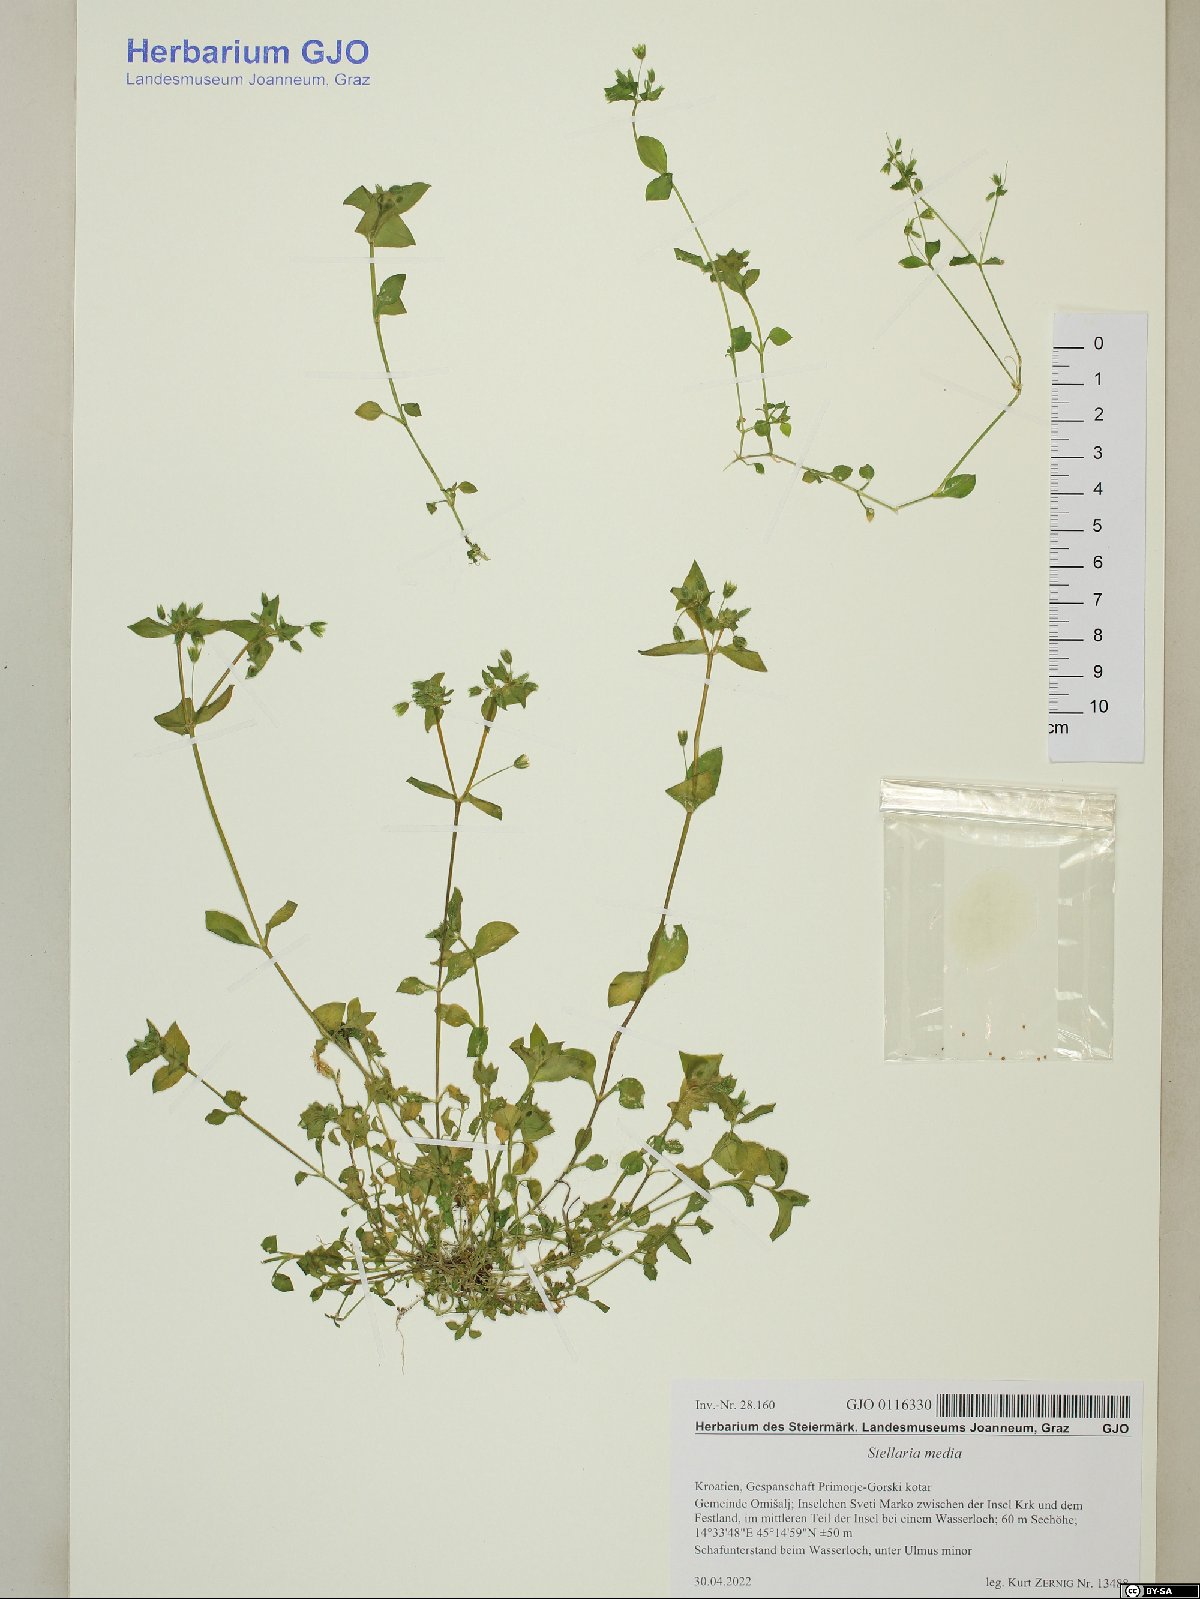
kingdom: Plantae
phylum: Tracheophyta
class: Magnoliopsida
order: Caryophyllales
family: Caryophyllaceae
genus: Stellaria
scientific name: Stellaria media
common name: Common chickweed
